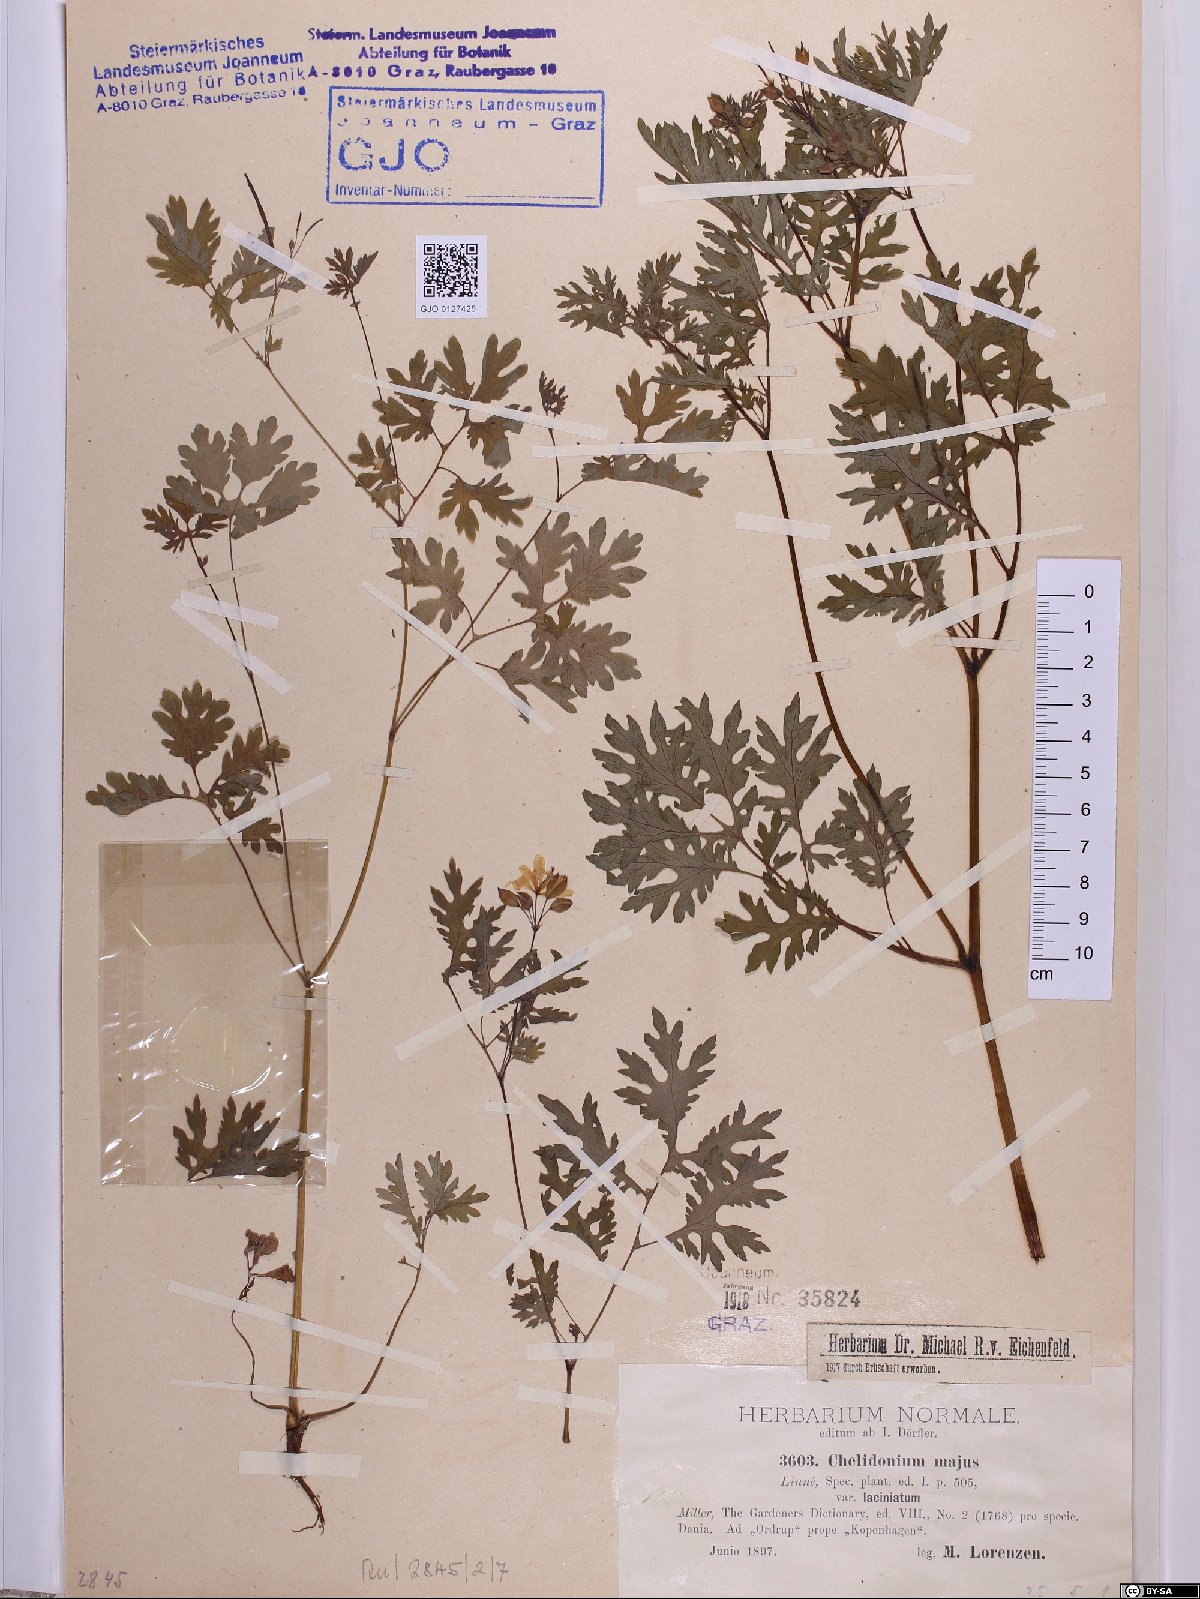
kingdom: Plantae
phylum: Tracheophyta
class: Magnoliopsida
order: Ranunculales
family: Papaveraceae
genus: Chelidonium
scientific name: Chelidonium majus
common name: Greater celandine
